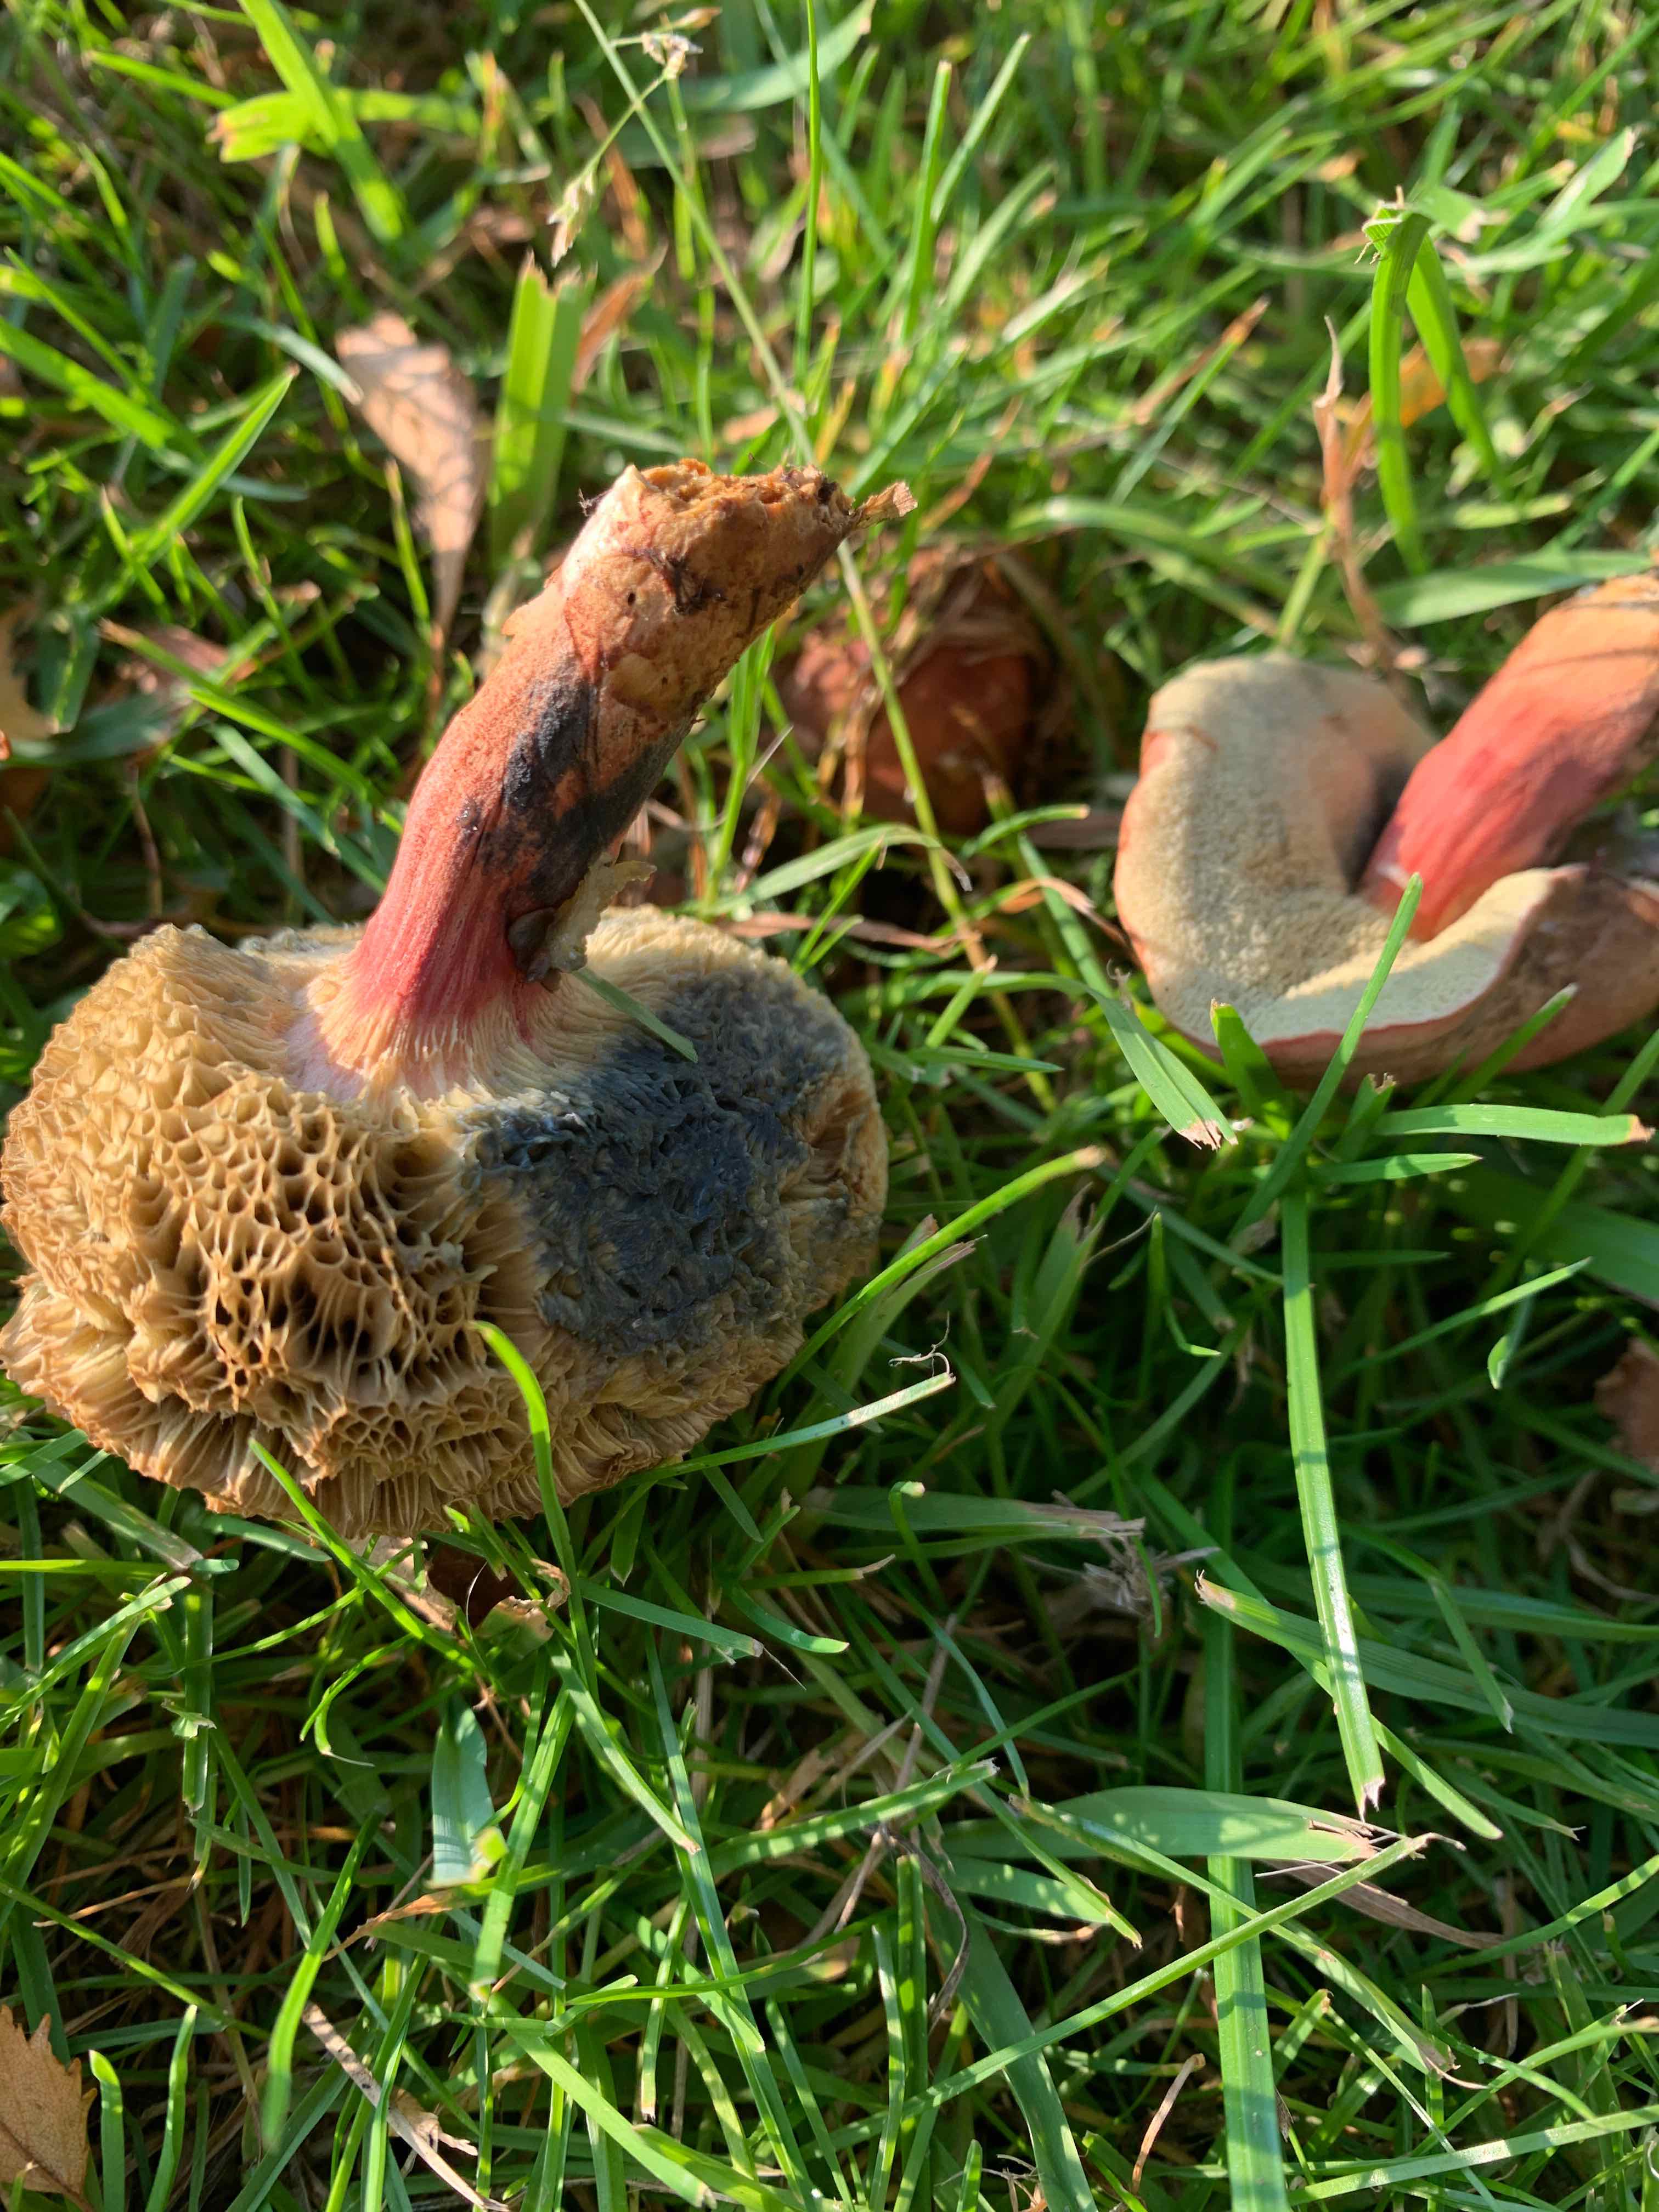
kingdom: Fungi
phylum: Basidiomycota
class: Agaricomycetes
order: Boletales
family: Boletaceae
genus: Hortiboletus
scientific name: Hortiboletus bubalinus
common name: aurora-rørhat
